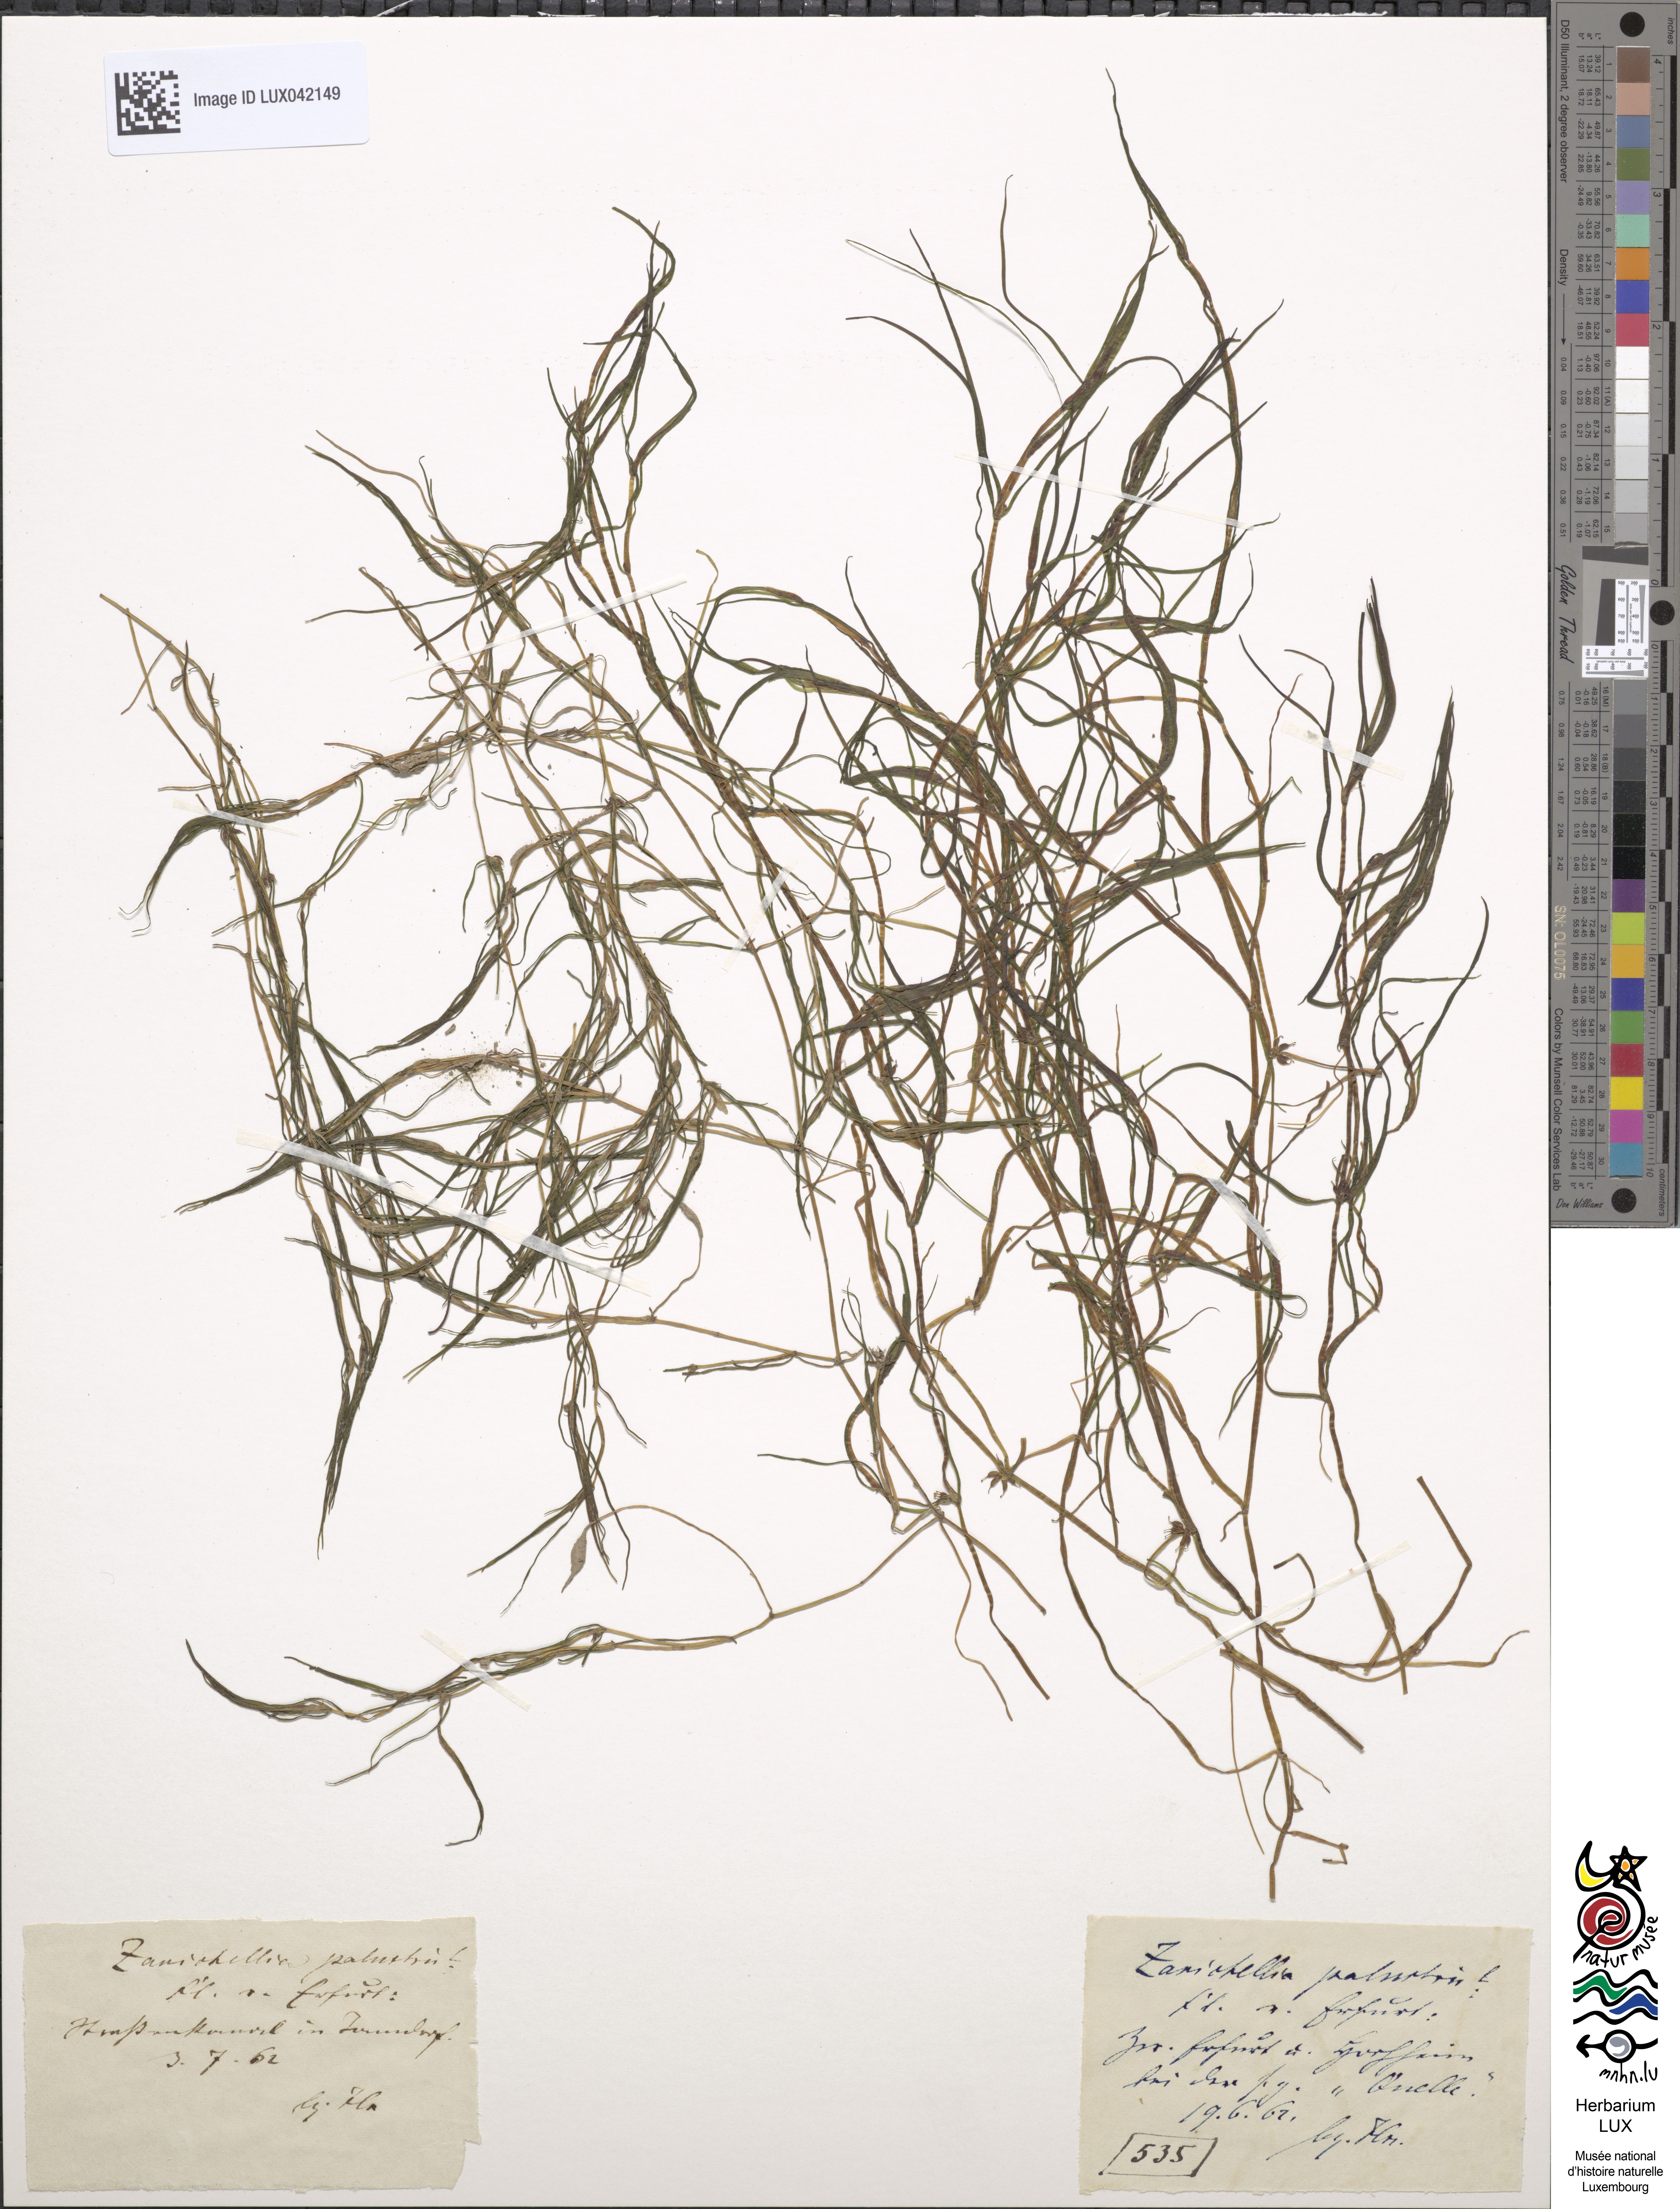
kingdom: Plantae
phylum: Tracheophyta
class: Liliopsida
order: Alismatales
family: Potamogetonaceae
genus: Zannichellia
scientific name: Zannichellia palustris
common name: Horned pondweed
